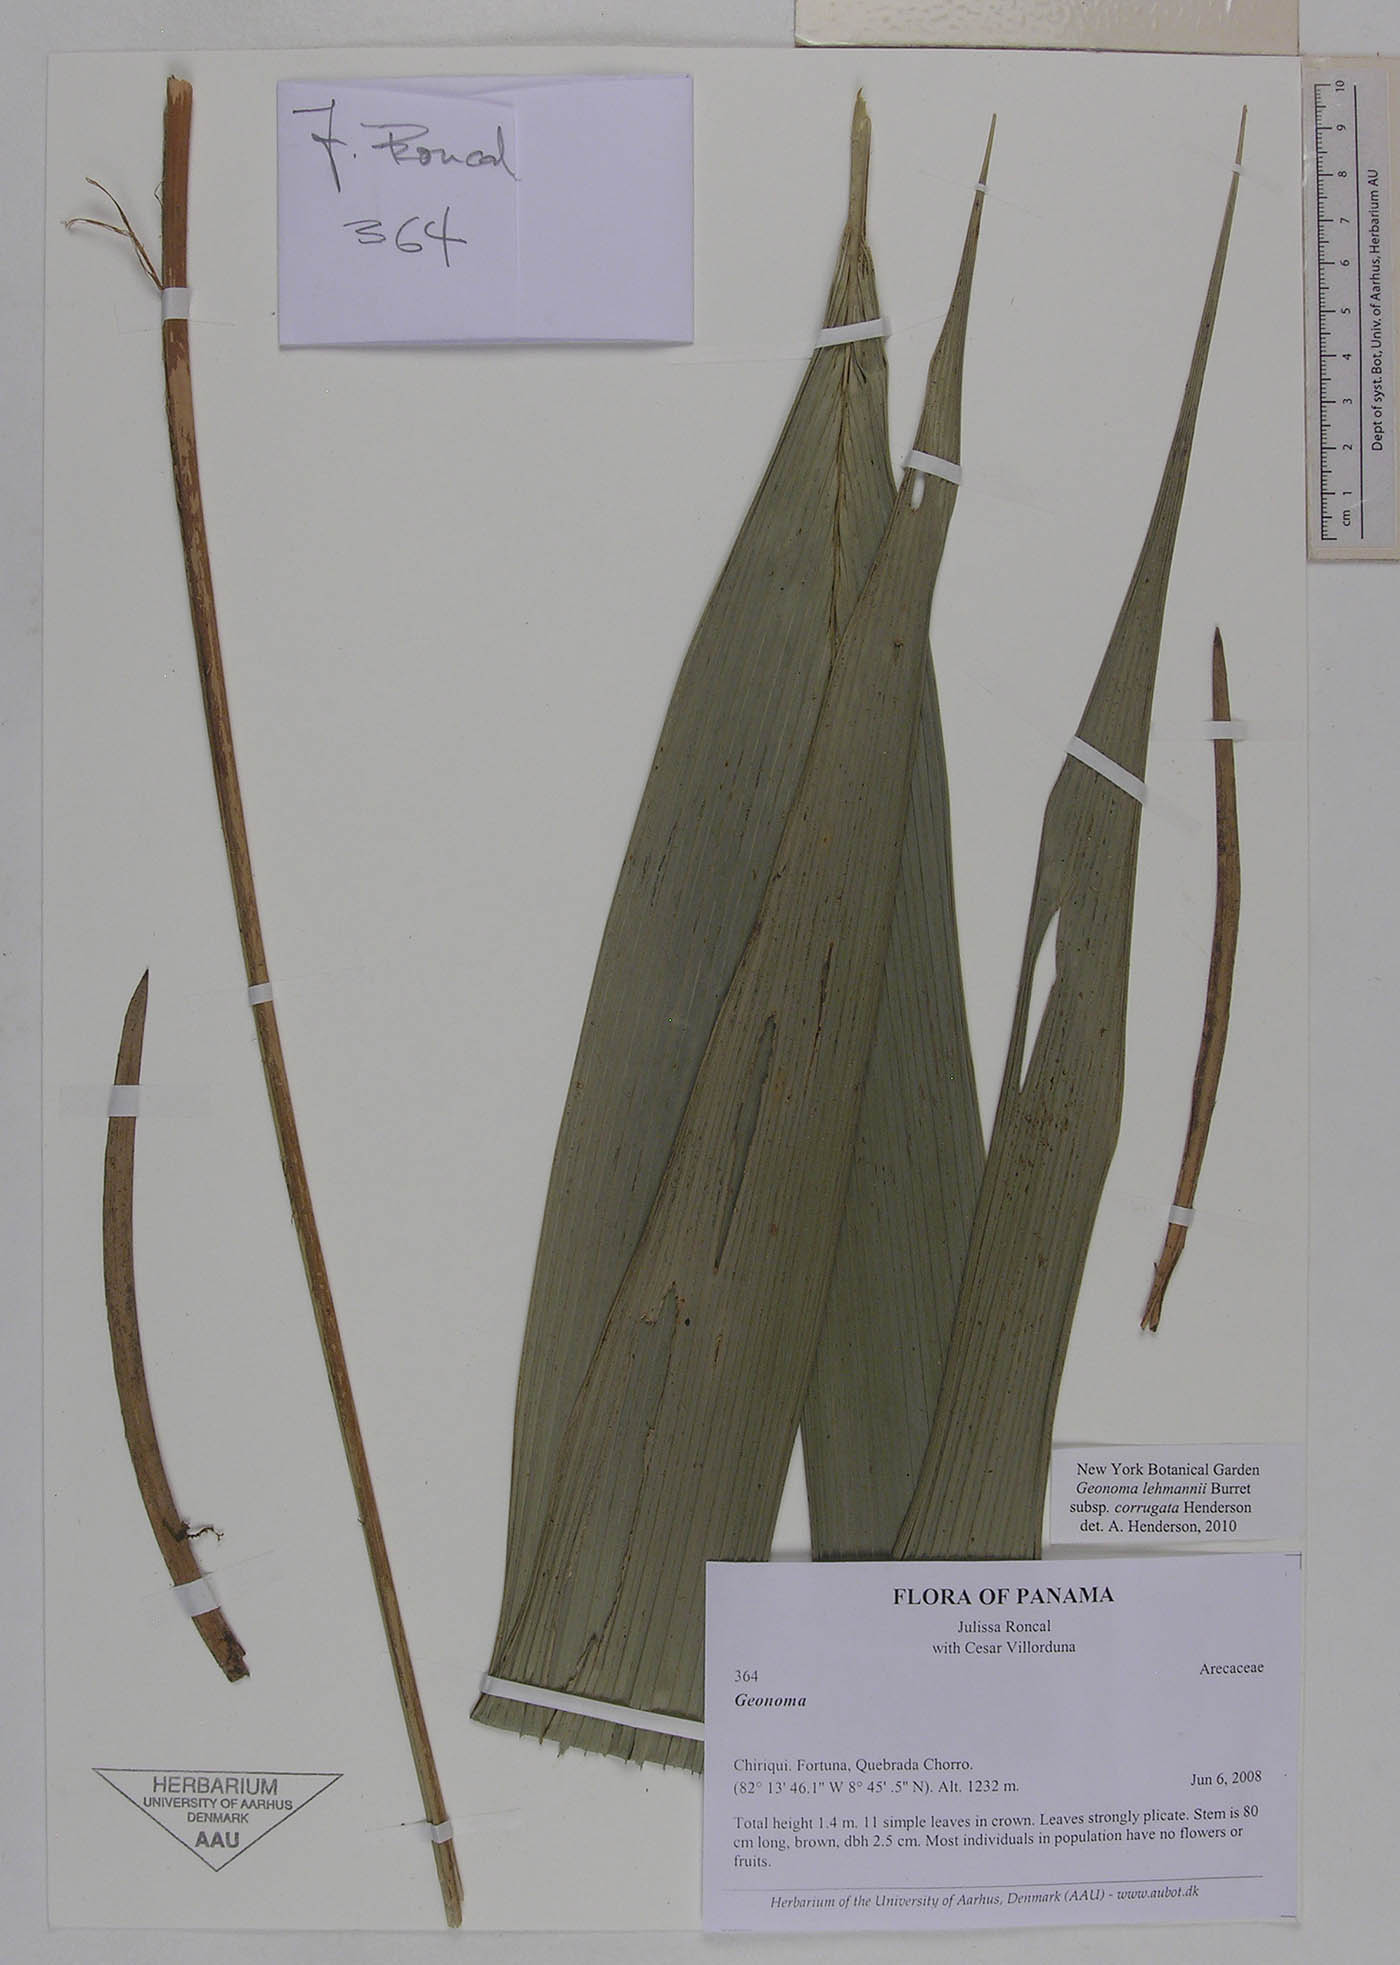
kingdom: Plantae
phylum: Tracheophyta
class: Liliopsida
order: Arecales
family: Arecaceae
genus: Geonoma
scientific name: Geonoma lehmannii
